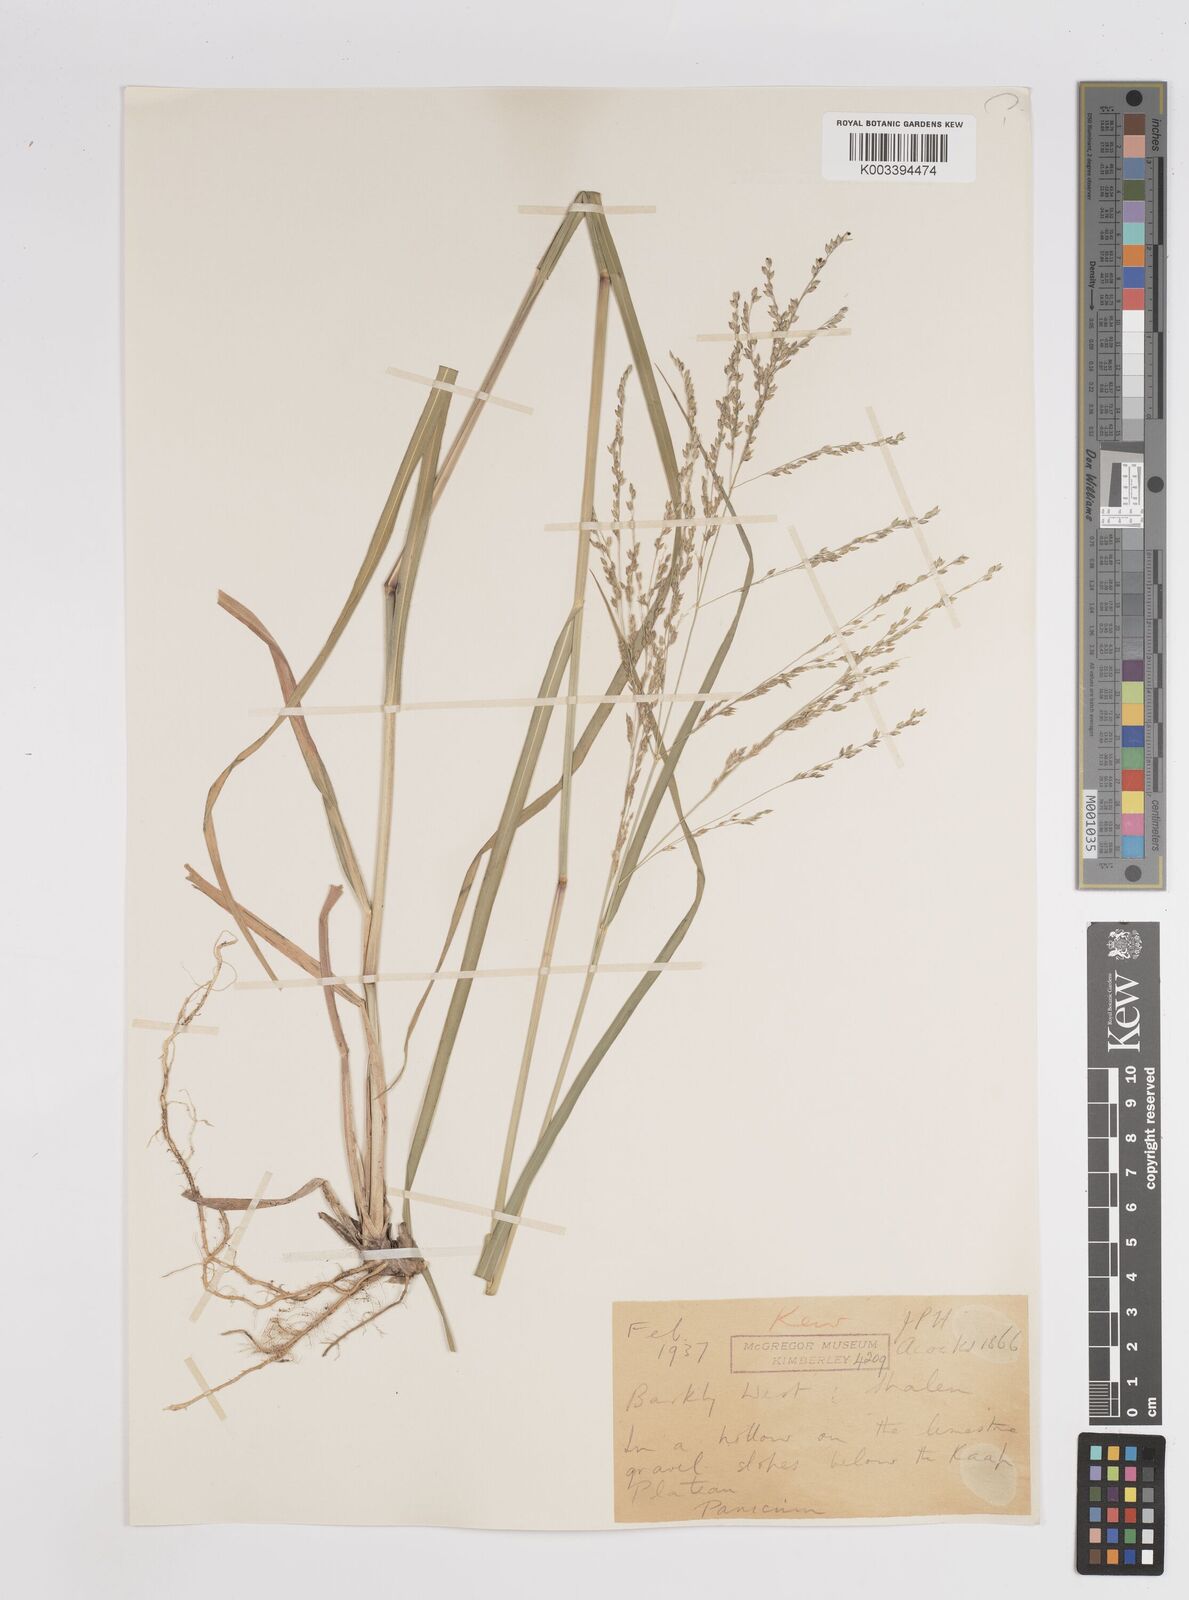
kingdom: Plantae
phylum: Tracheophyta
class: Liliopsida
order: Poales
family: Poaceae
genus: Panicum
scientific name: Panicum
